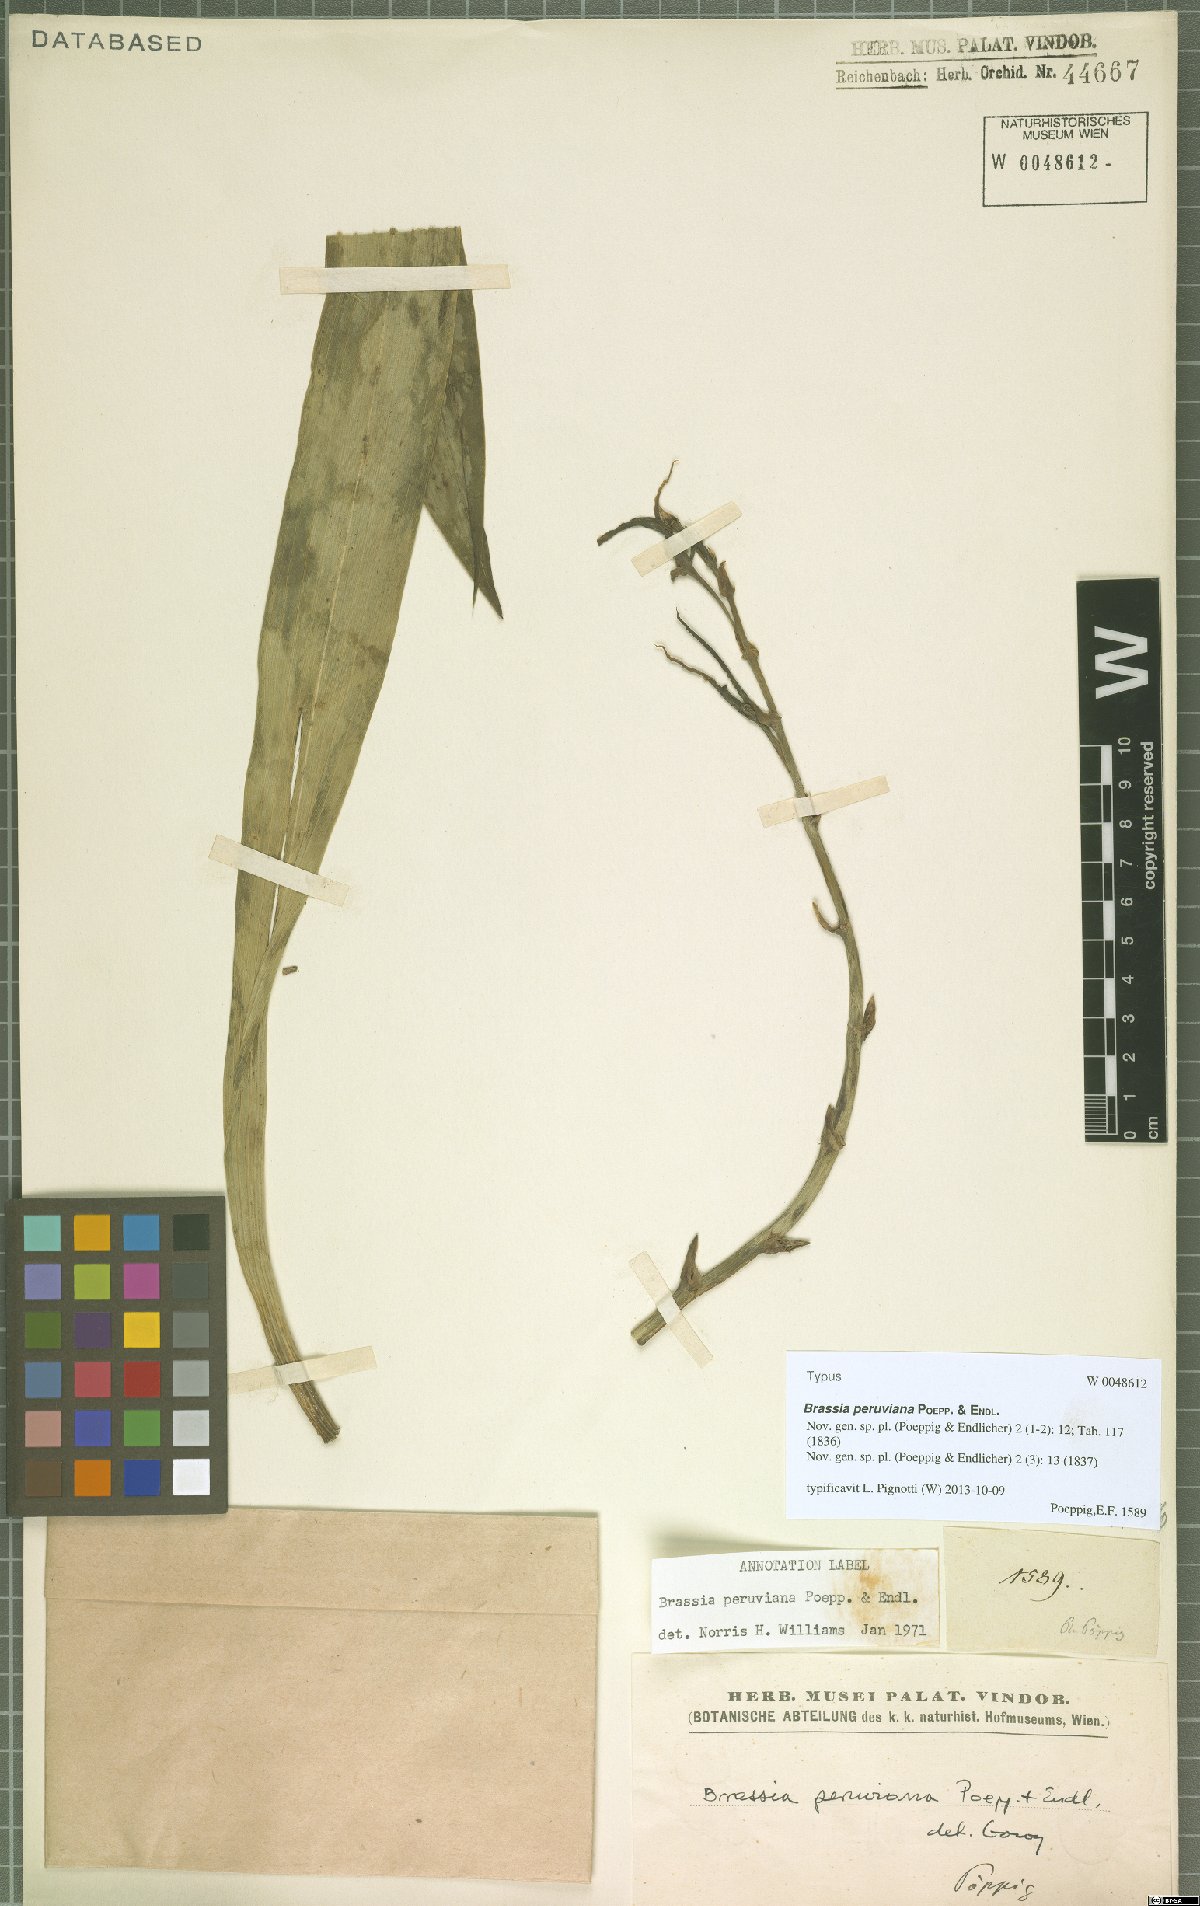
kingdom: Plantae
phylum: Tracheophyta
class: Liliopsida
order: Asparagales
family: Orchidaceae
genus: Brassia
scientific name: Brassia peruviana
